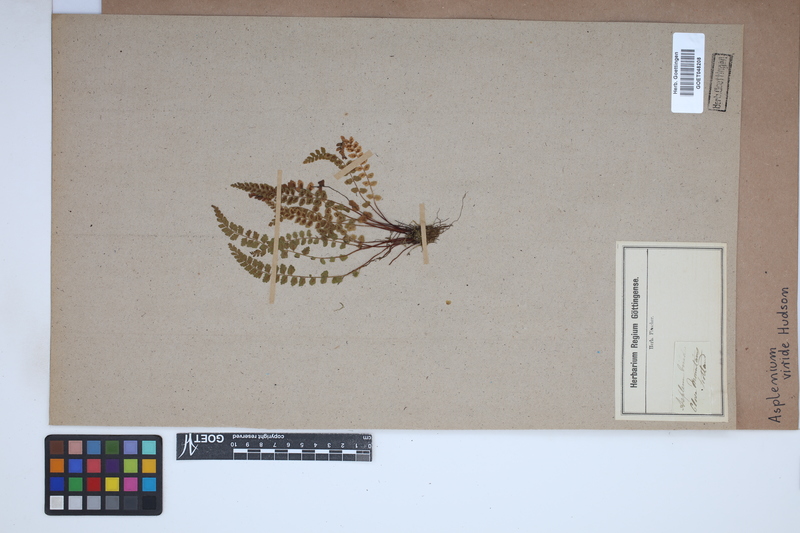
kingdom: Plantae
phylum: Tracheophyta
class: Polypodiopsida
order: Polypodiales
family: Aspleniaceae
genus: Asplenium
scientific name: Asplenium viride
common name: Green spleenwort
